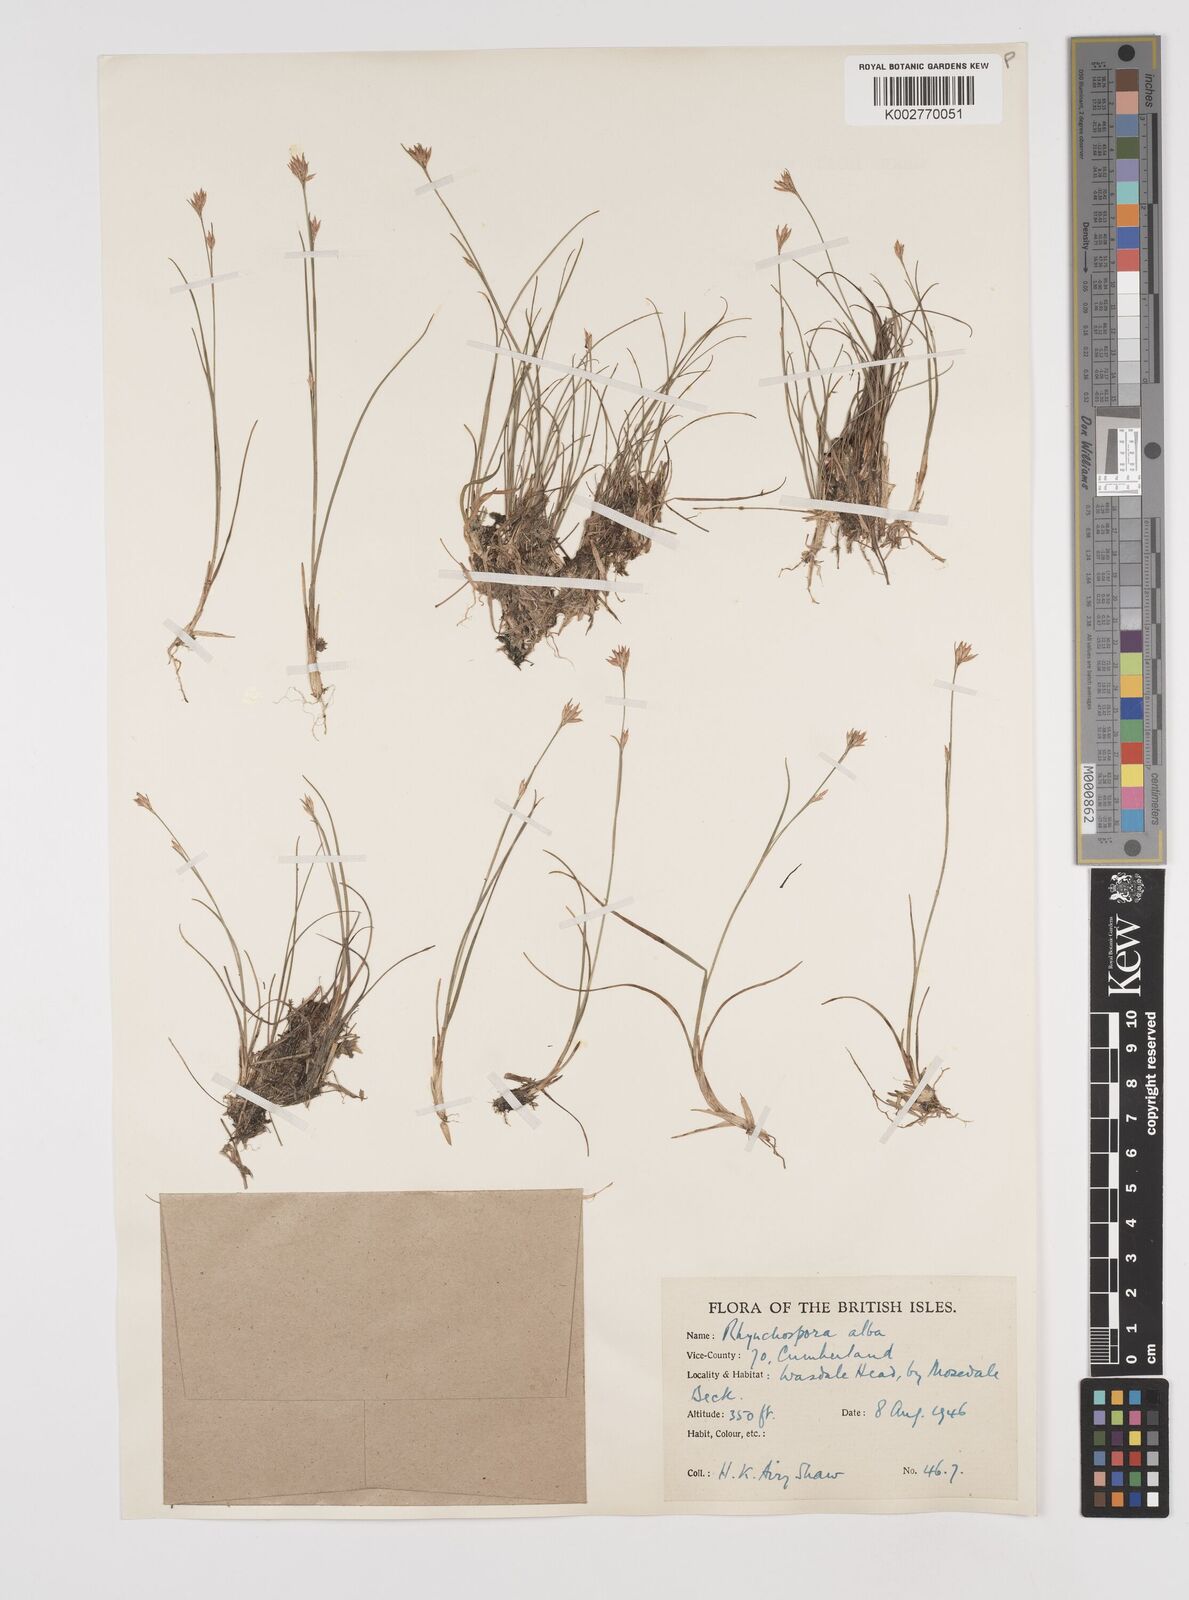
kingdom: Plantae
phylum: Tracheophyta
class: Liliopsida
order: Poales
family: Cyperaceae
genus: Rhynchospora
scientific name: Rhynchospora alba
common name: White beak-sedge
